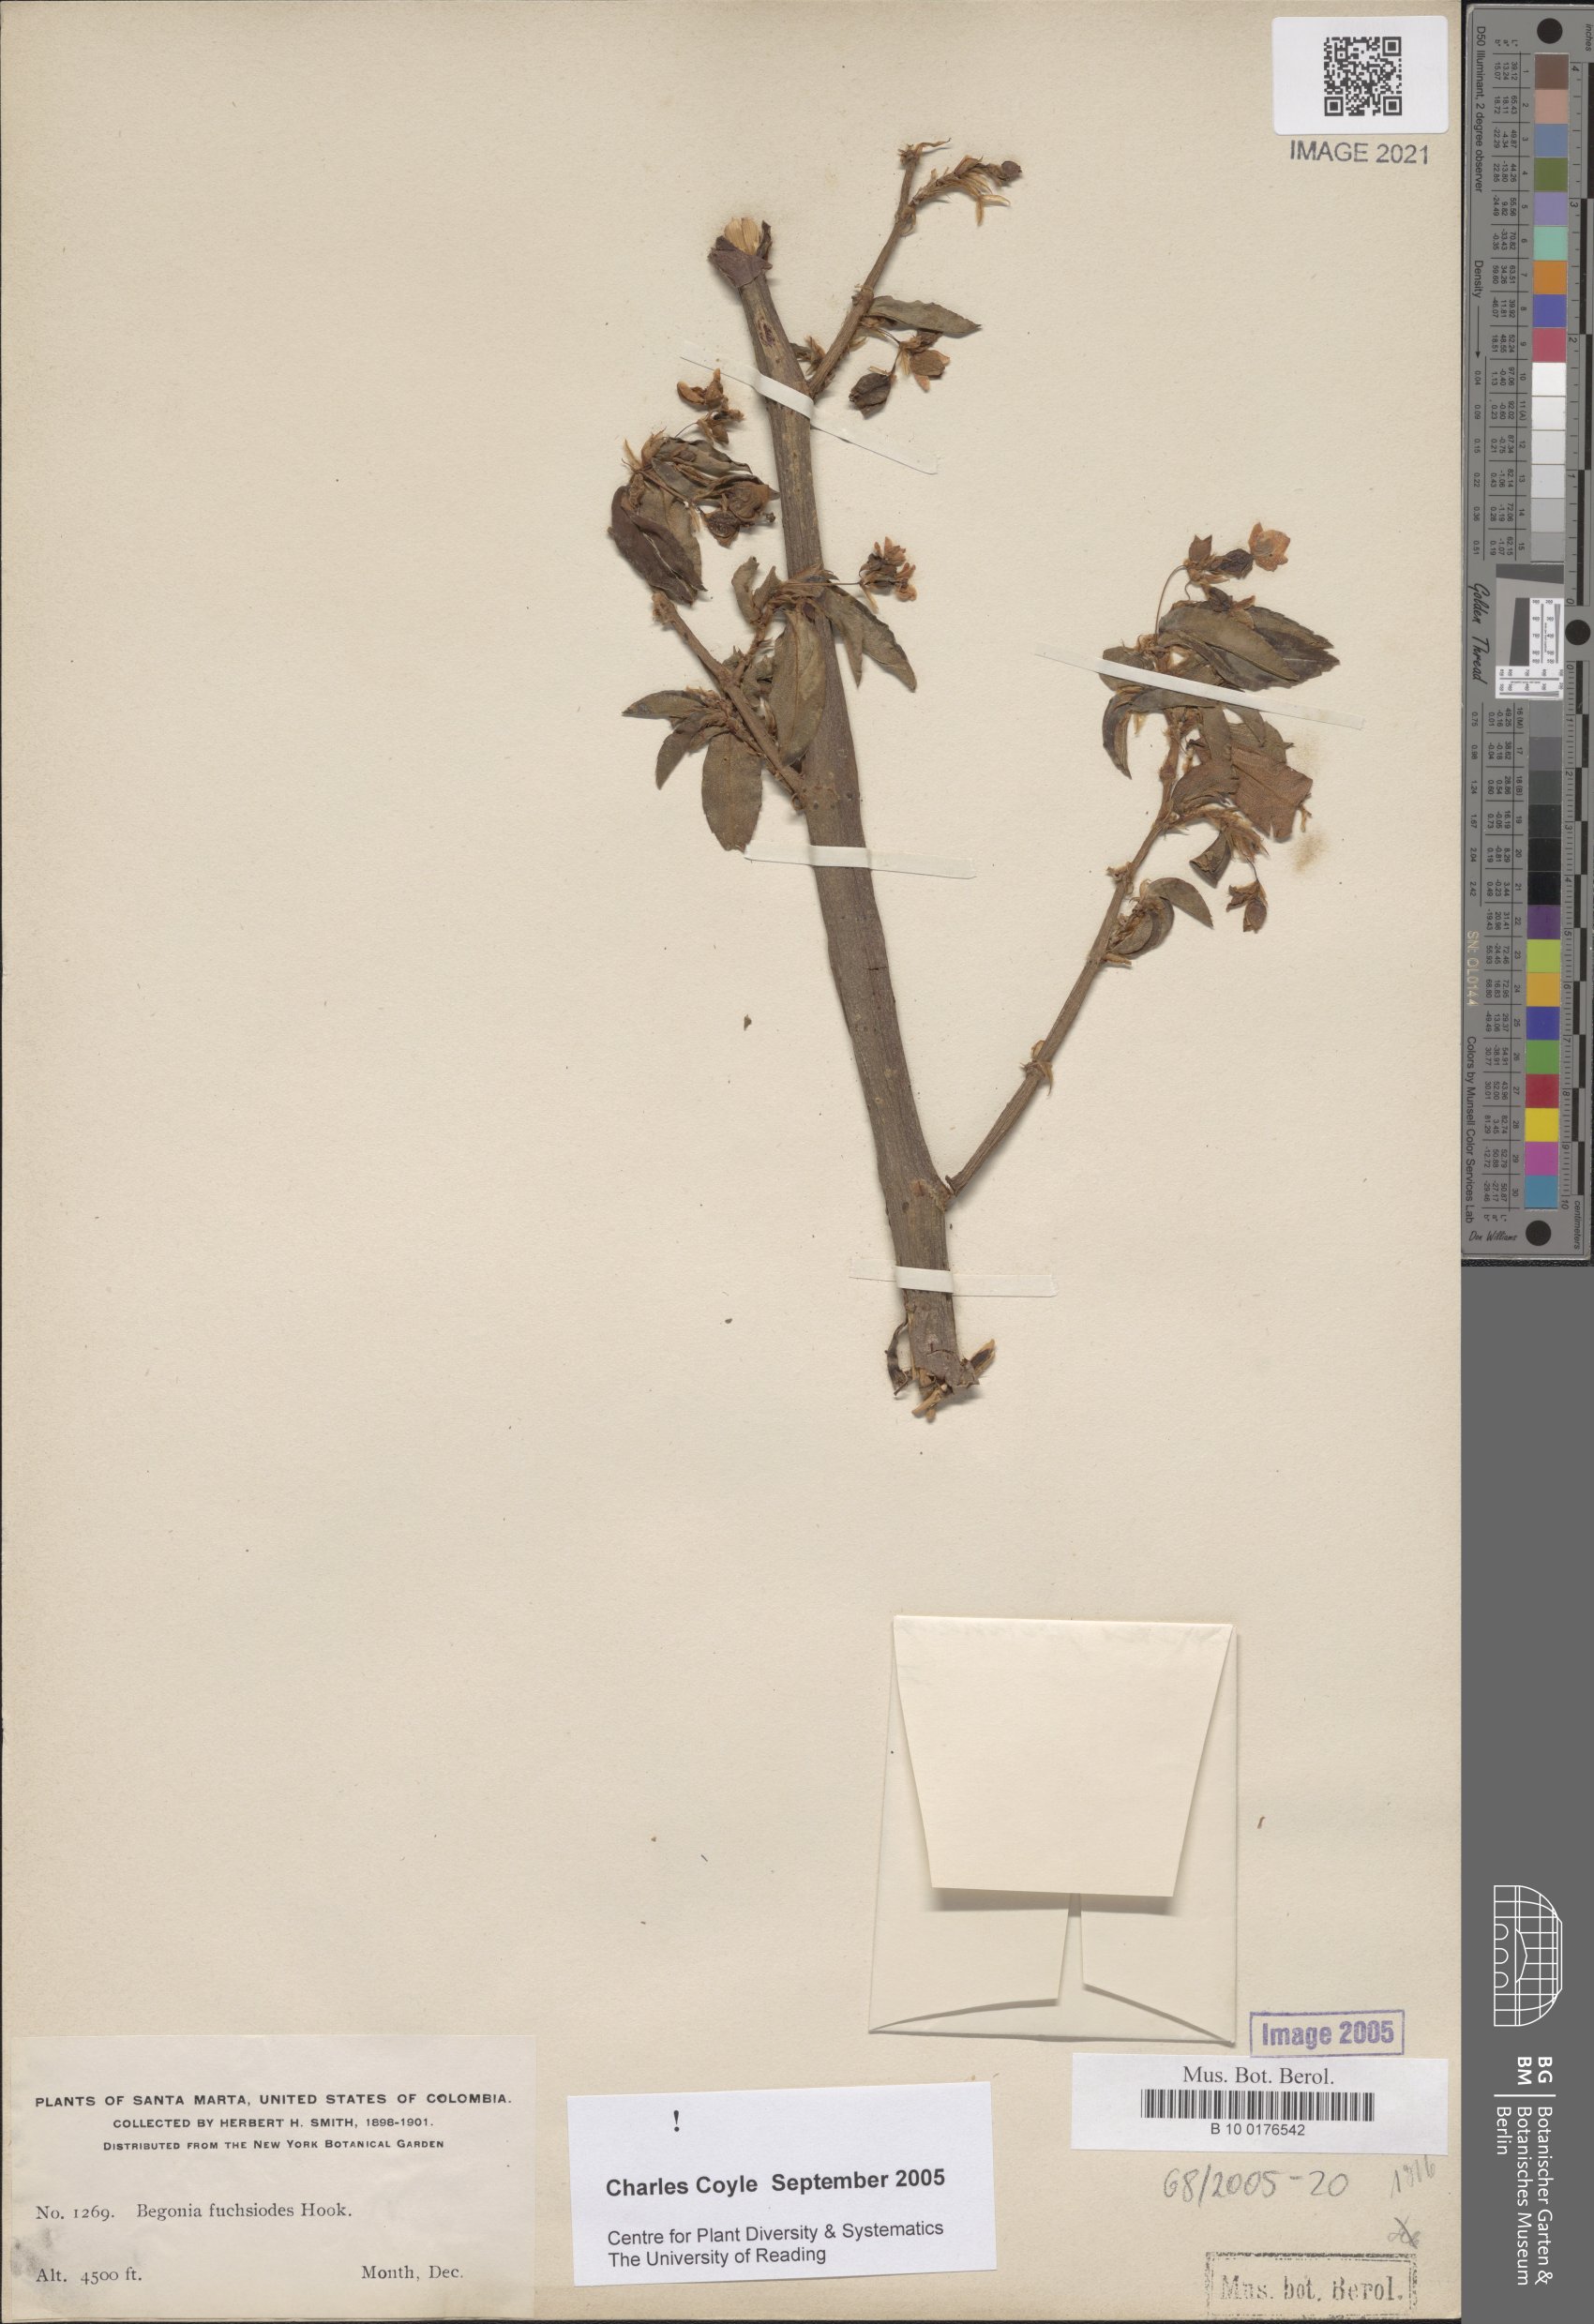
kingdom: Plantae
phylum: Tracheophyta
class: Magnoliopsida
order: Cucurbitales
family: Begoniaceae
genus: Begonia
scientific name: Begonia fuchsioides
